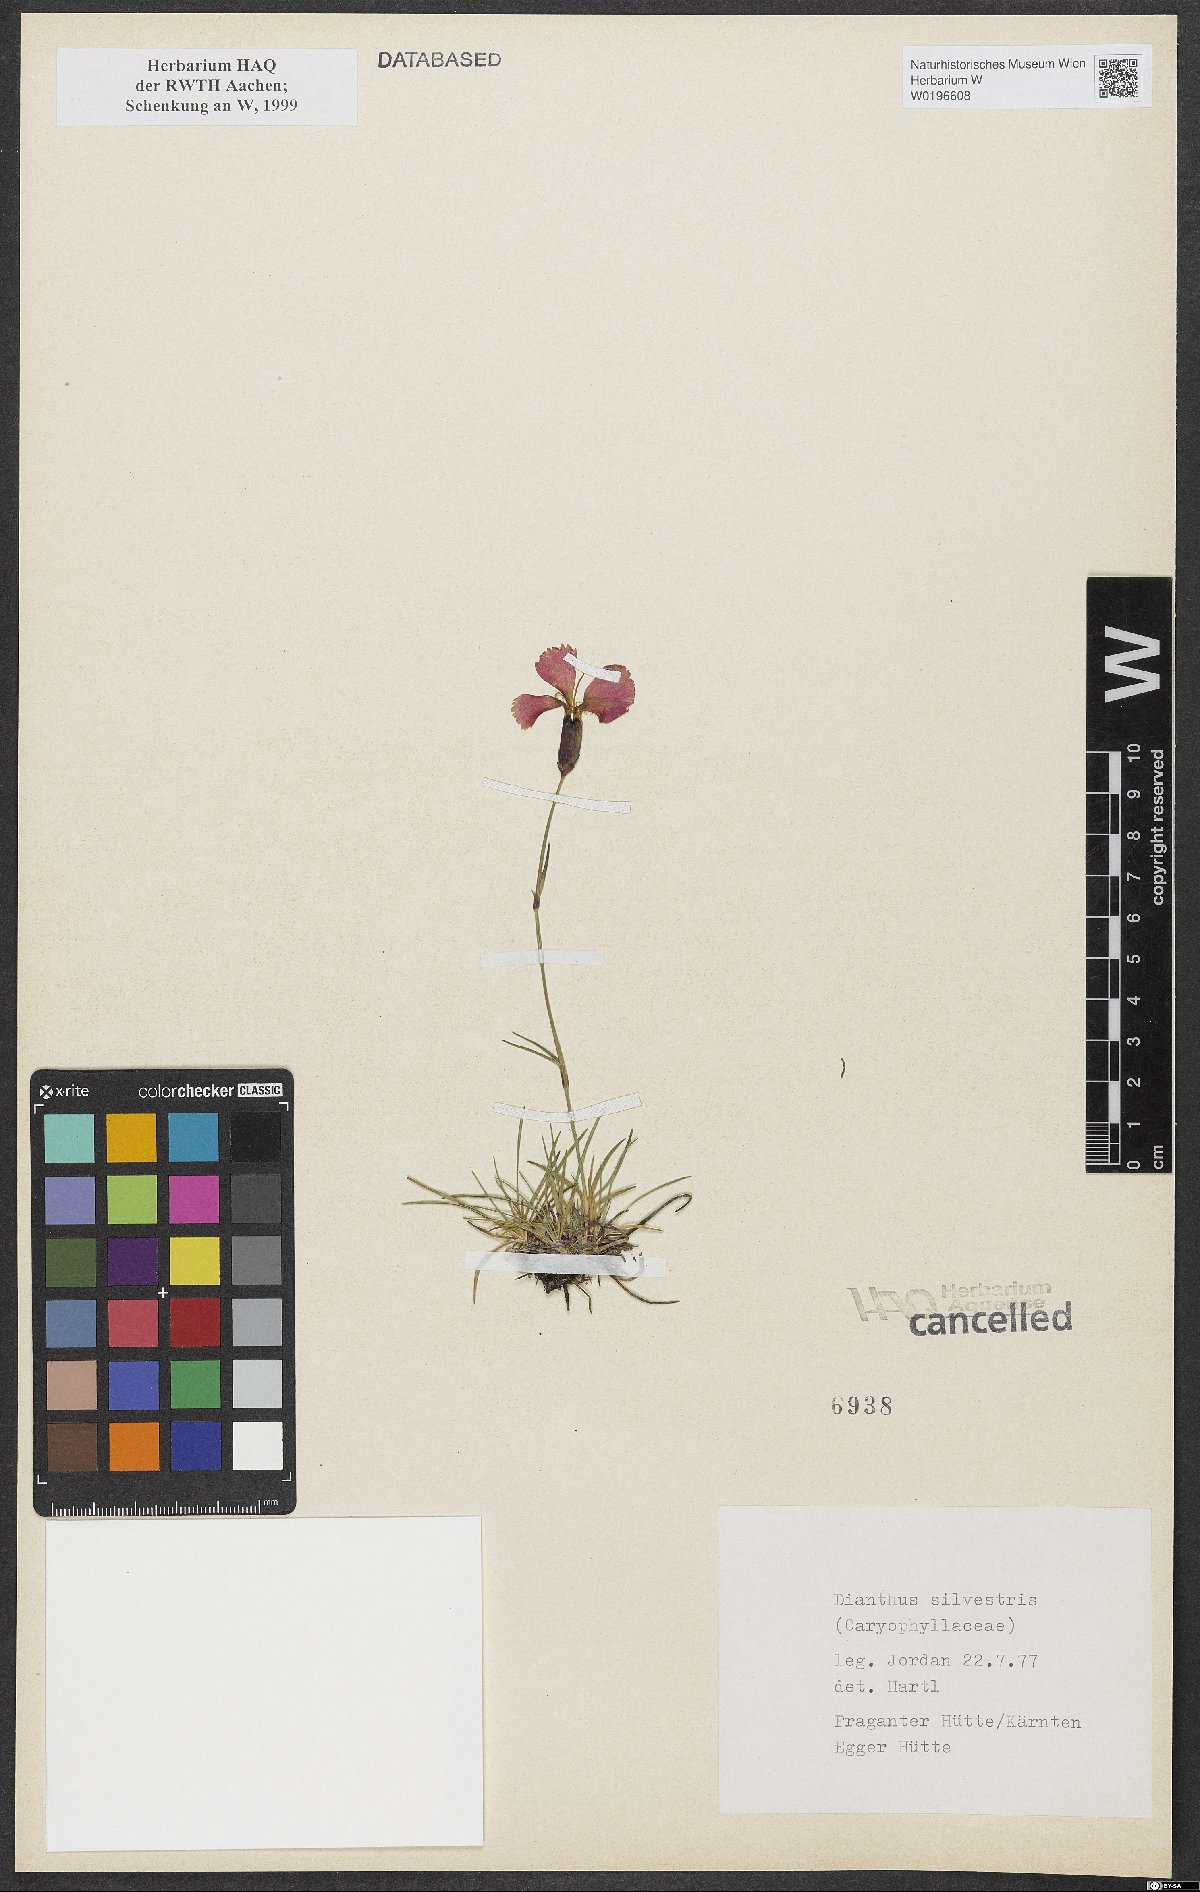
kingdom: Plantae
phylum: Tracheophyta
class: Magnoliopsida
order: Caryophyllales
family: Caryophyllaceae
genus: Dianthus
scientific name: Dianthus sylvestris
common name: Wood pink
